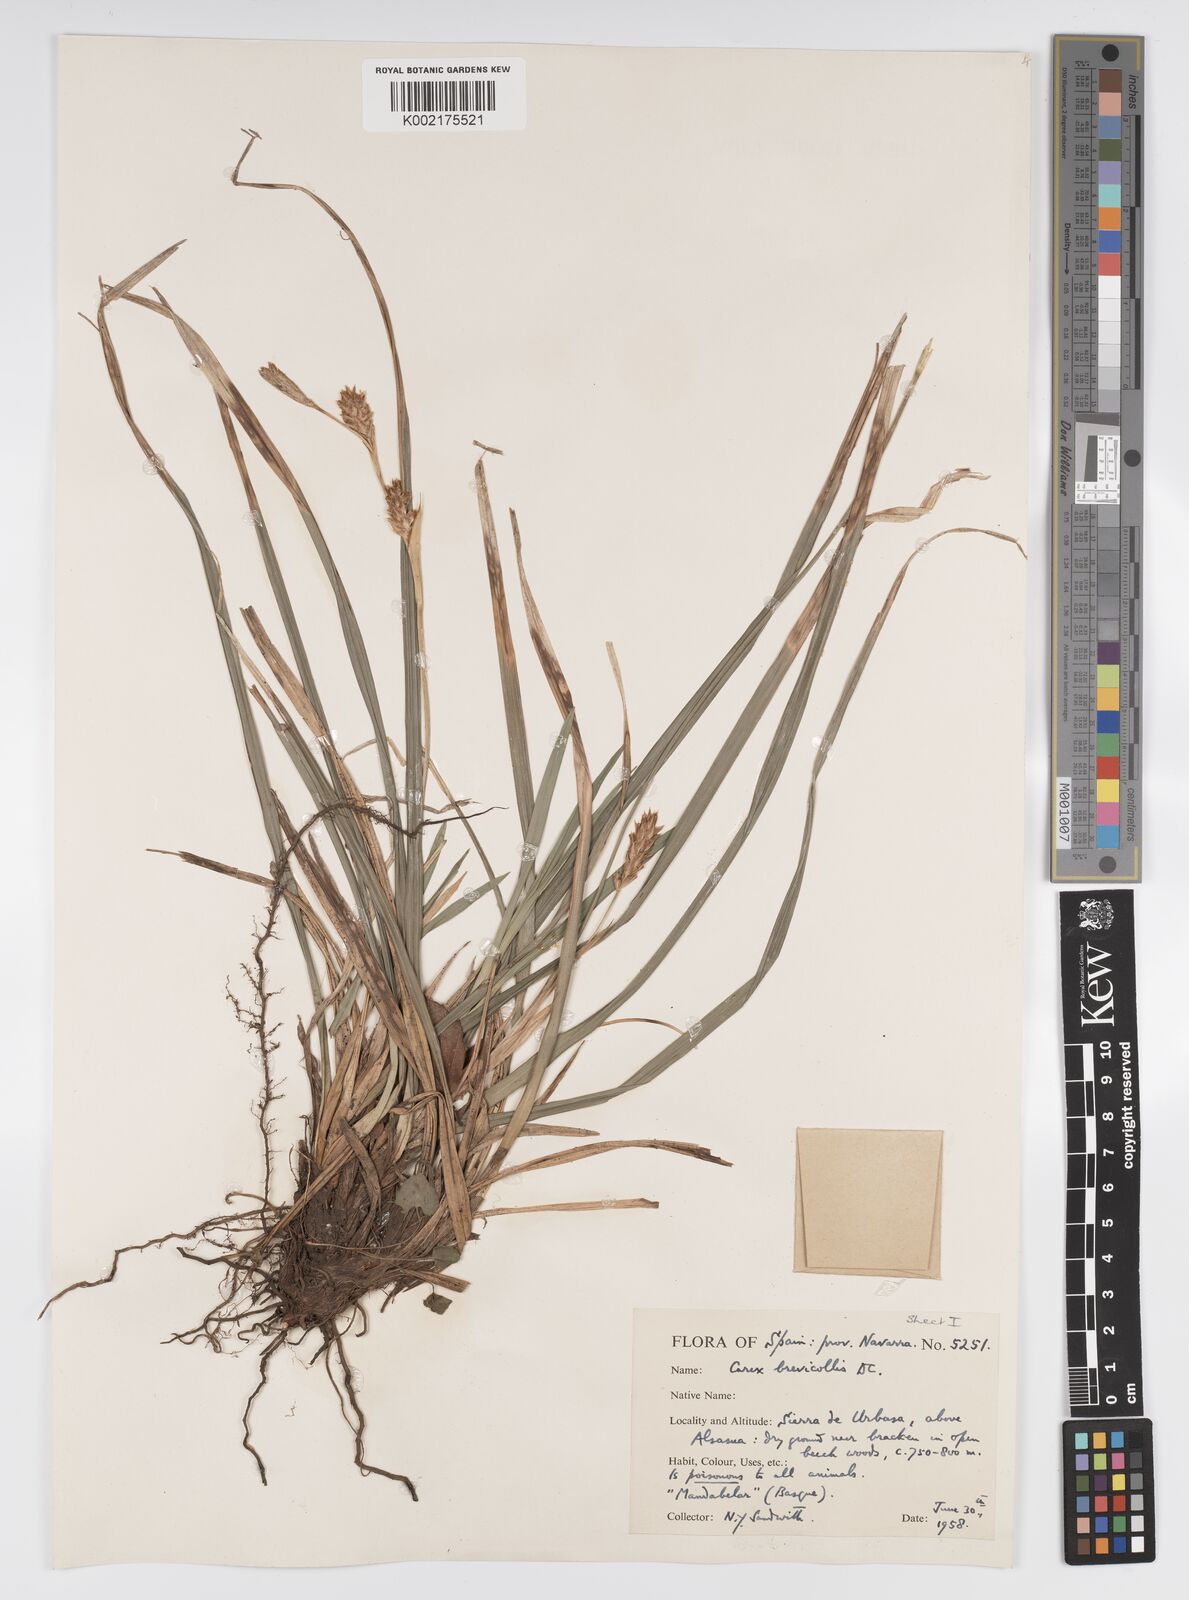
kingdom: Plantae
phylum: Tracheophyta
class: Liliopsida
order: Poales
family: Cyperaceae
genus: Carex
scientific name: Carex brevicollis
